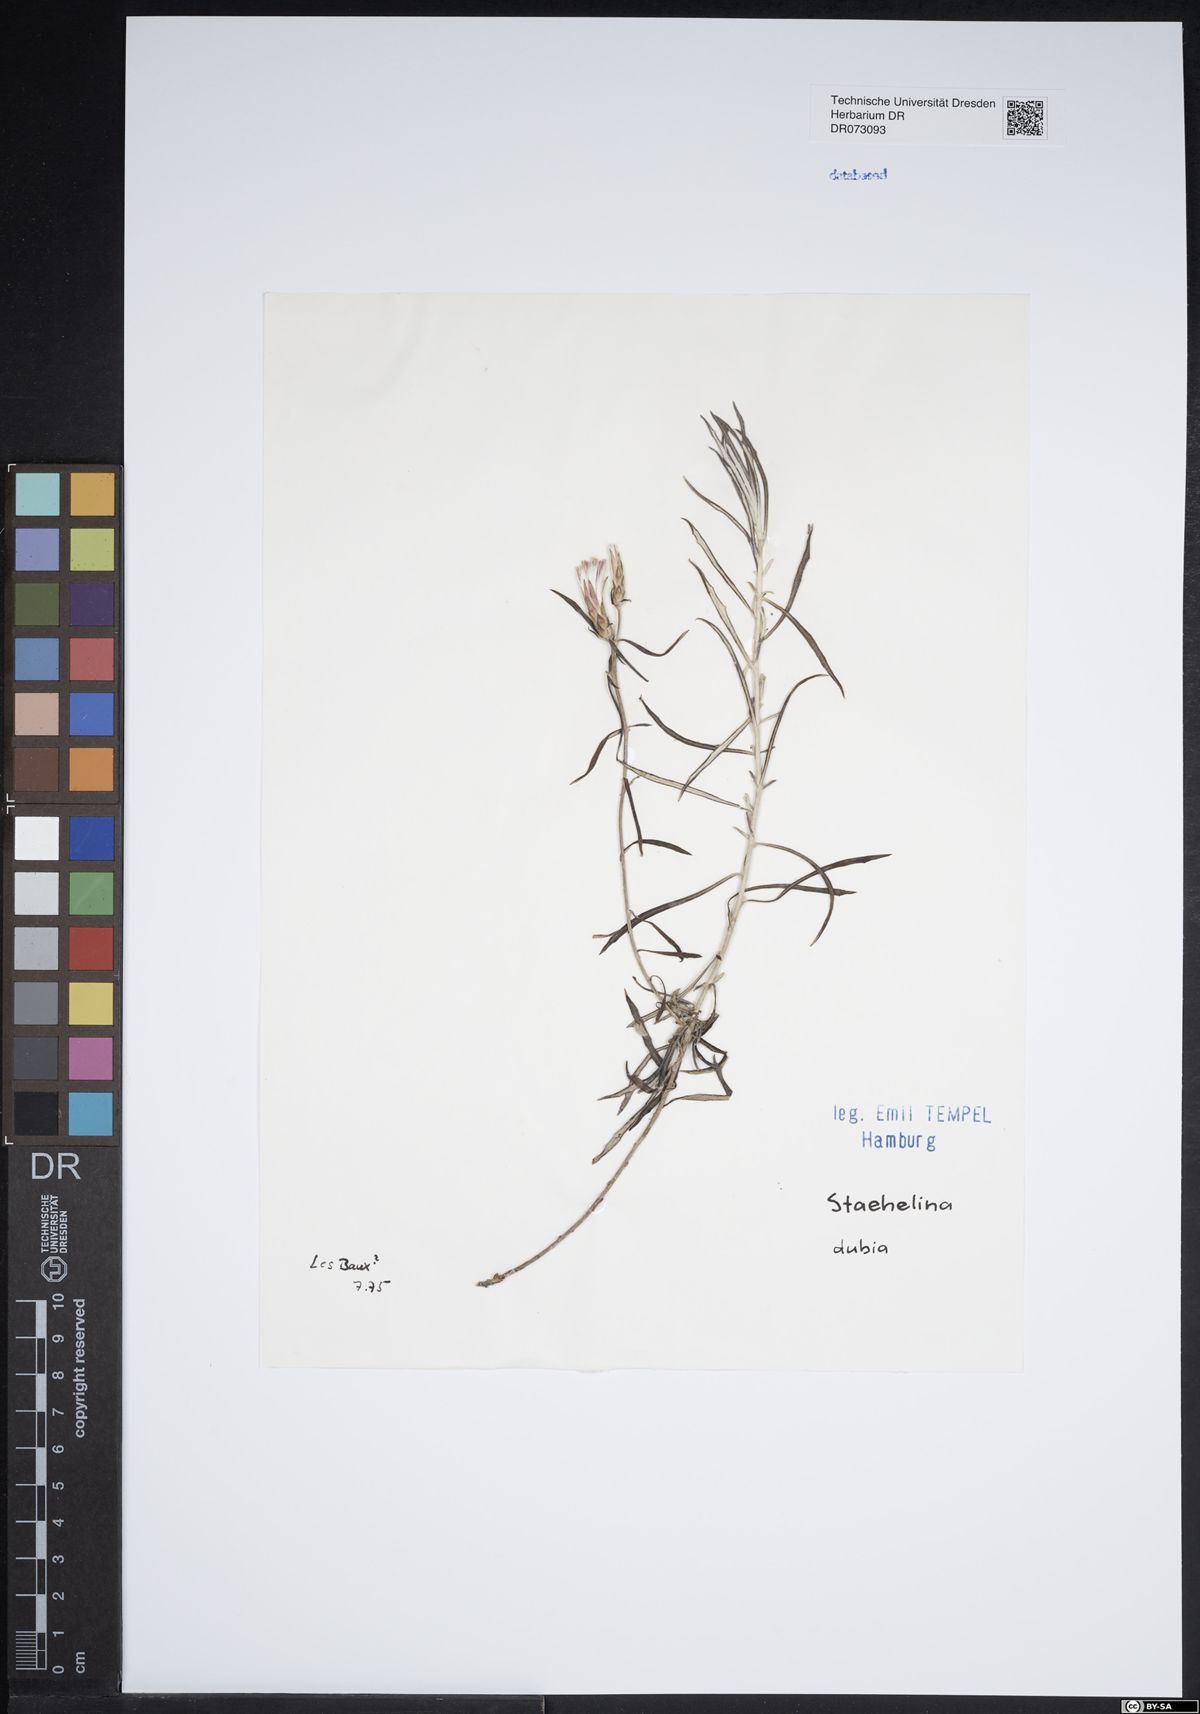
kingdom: Plantae
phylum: Tracheophyta
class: Magnoliopsida
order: Asterales
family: Asteraceae
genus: Achillea
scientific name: Achillea ageratum
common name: Sweet-nancy
